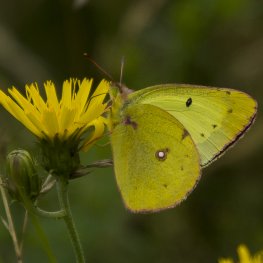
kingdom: Animalia
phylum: Arthropoda
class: Insecta
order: Lepidoptera
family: Pieridae
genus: Colias
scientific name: Colias philodice
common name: Clouded Sulphur
